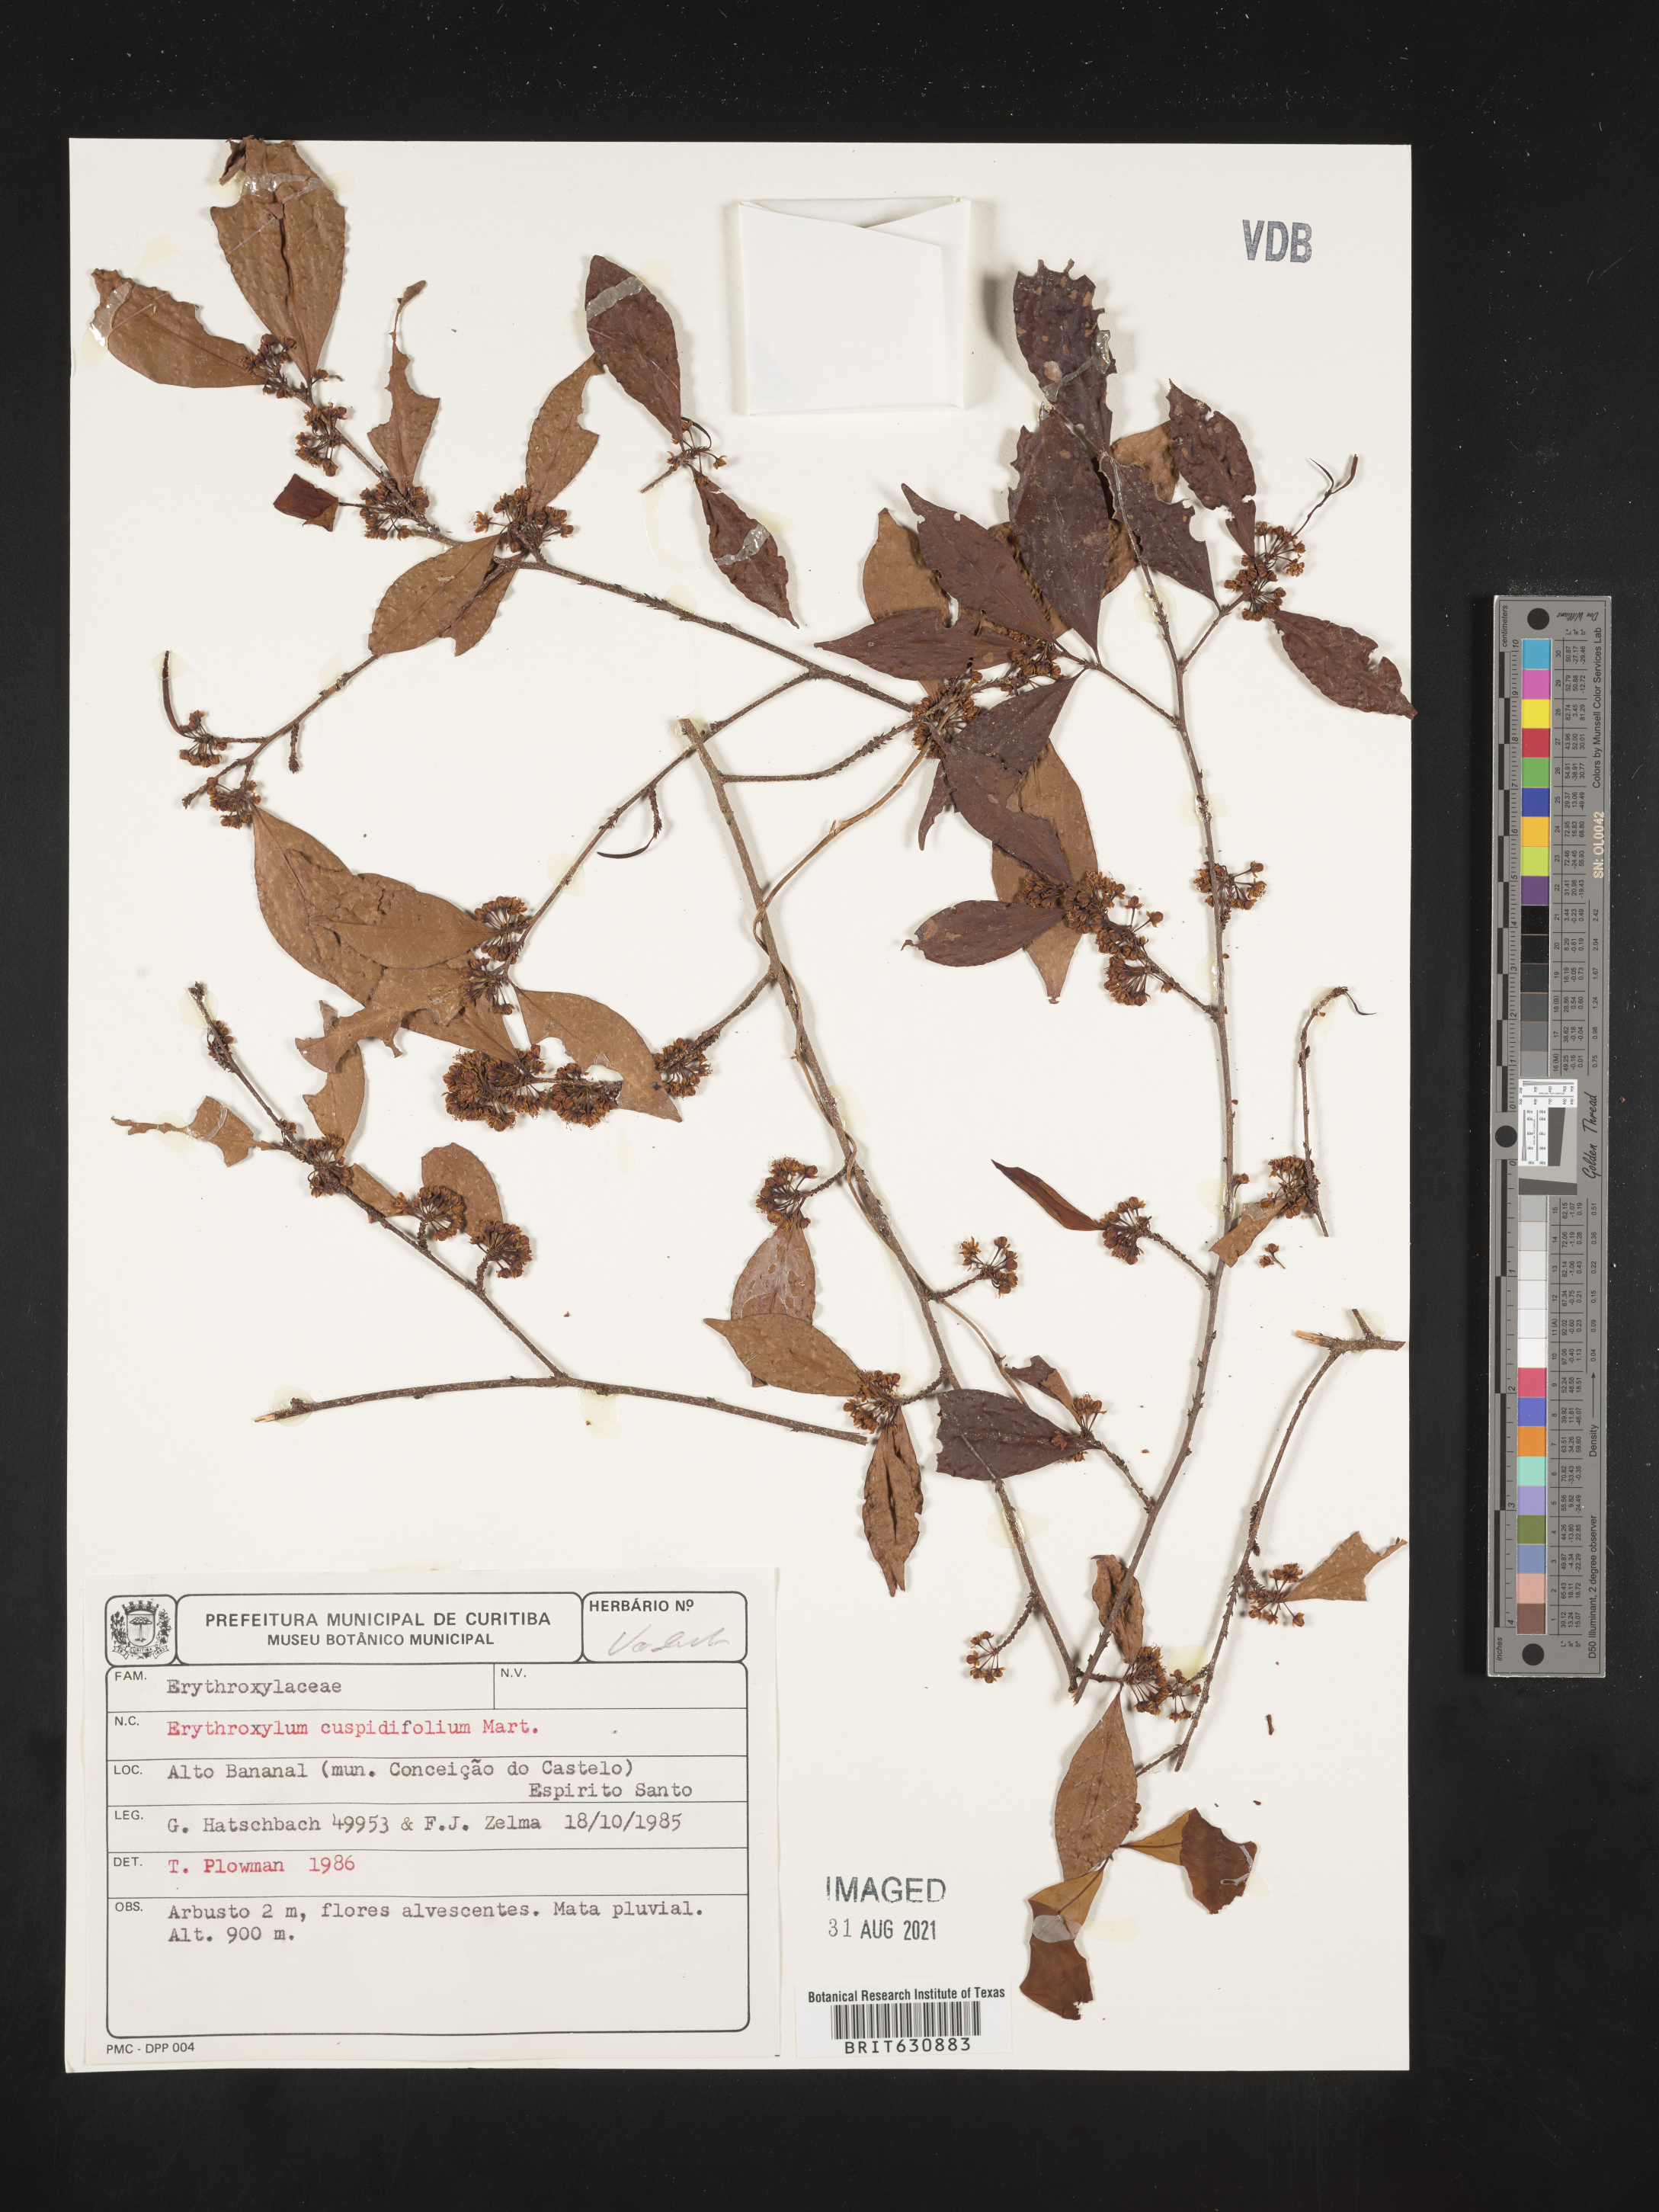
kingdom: Plantae
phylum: Tracheophyta
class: Magnoliopsida
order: Malpighiales
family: Erythroxylaceae
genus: Erythroxylum
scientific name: Erythroxylum
